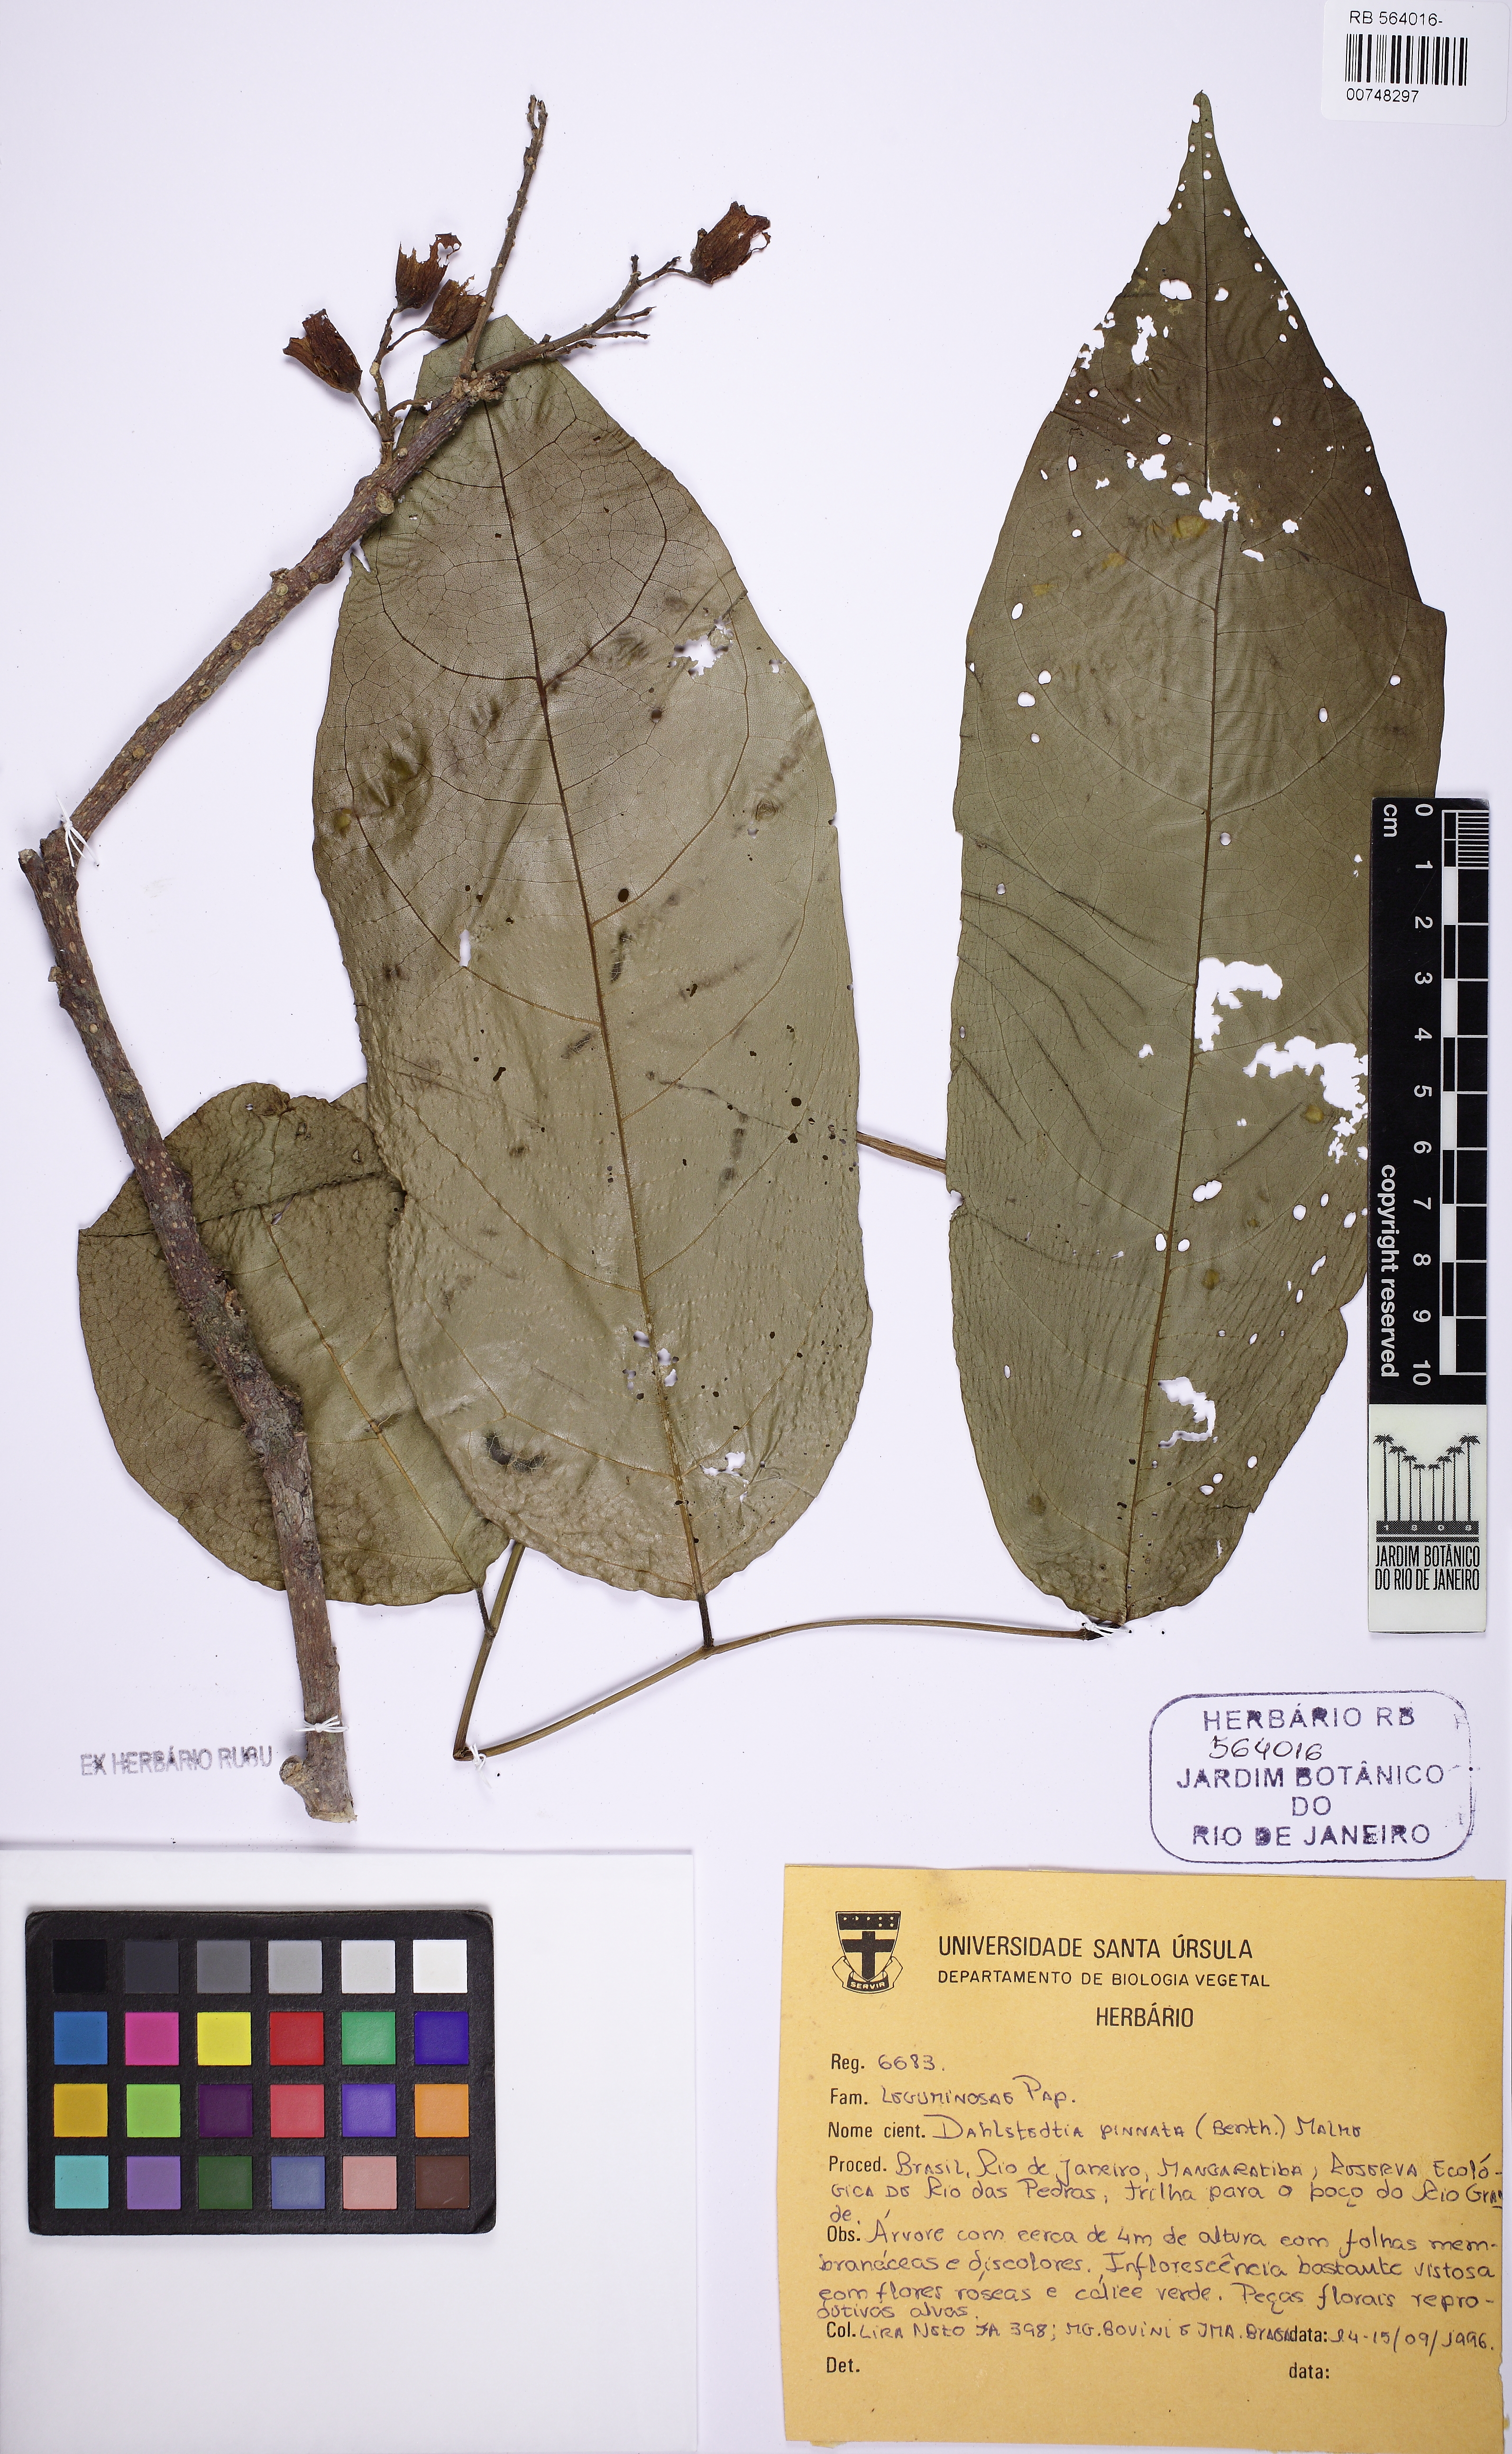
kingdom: Plantae
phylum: Tracheophyta
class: Magnoliopsida
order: Fabales
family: Fabaceae
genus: Dahlstedtia
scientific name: Dahlstedtia pinnata
